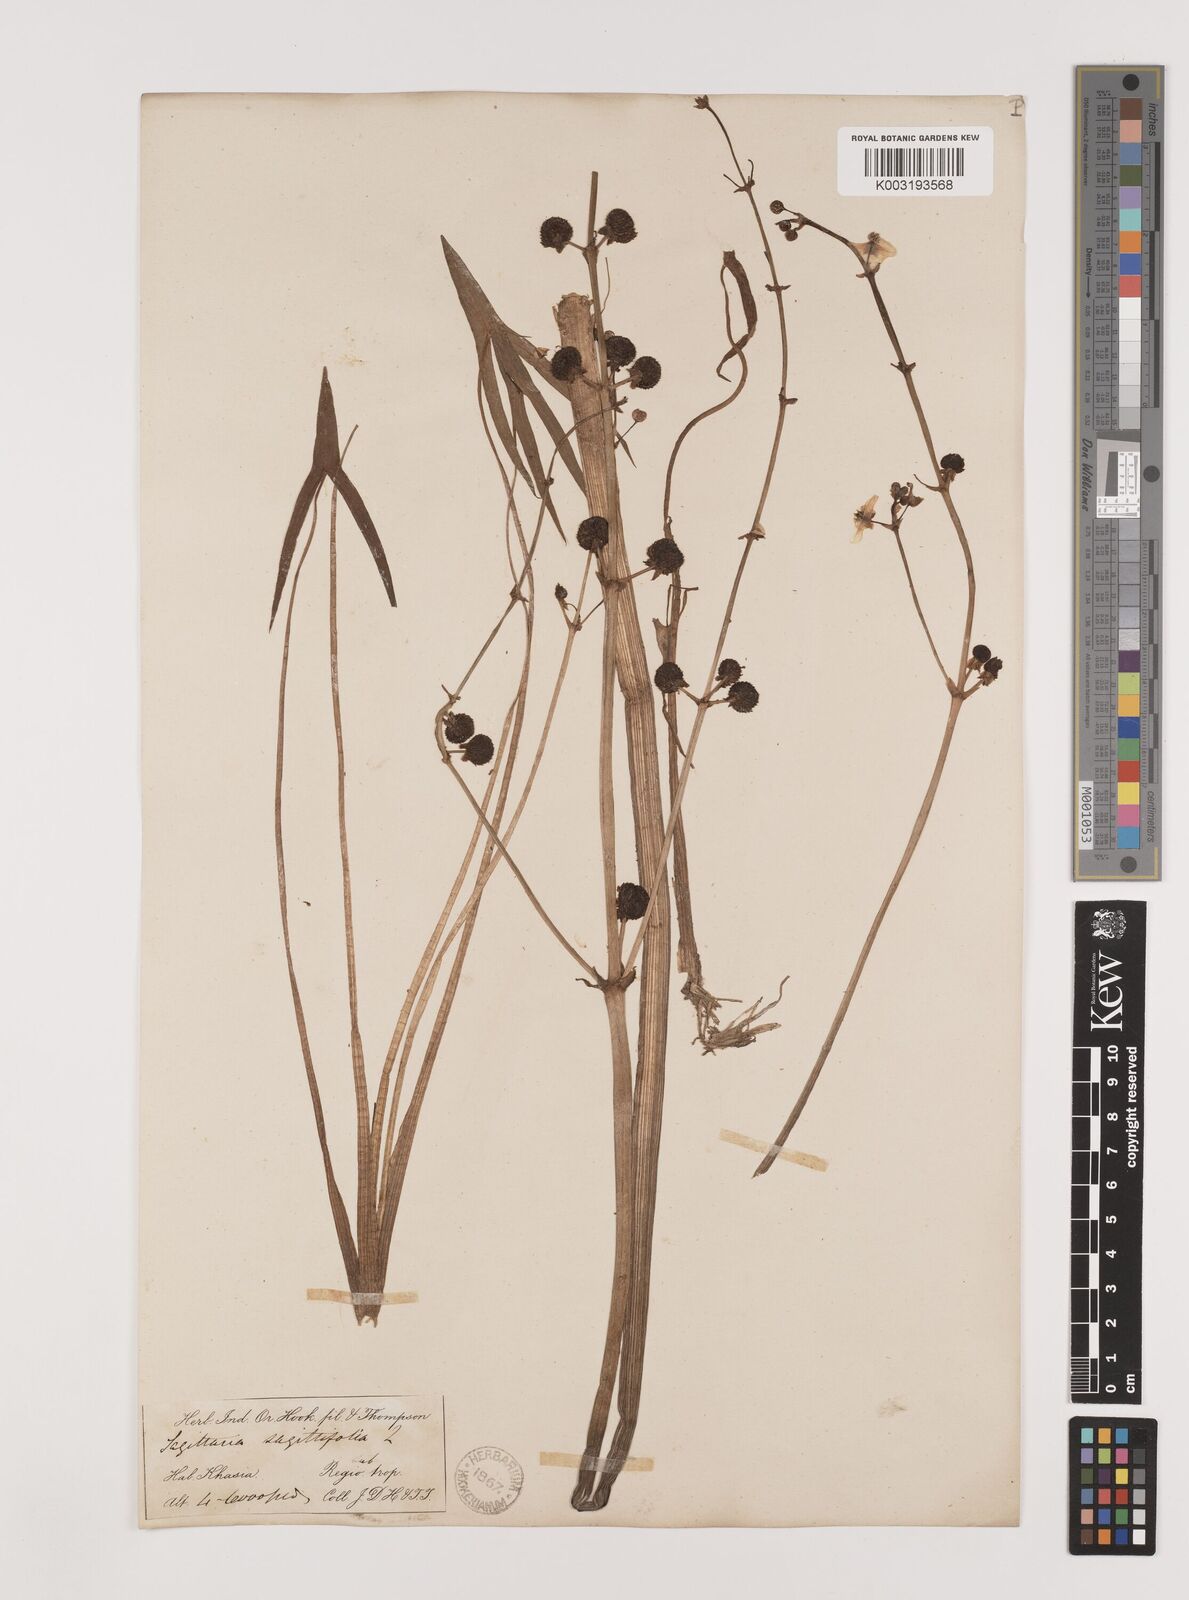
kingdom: Plantae
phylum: Tracheophyta
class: Liliopsida
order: Alismatales
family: Alismataceae
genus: Sagittaria
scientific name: Sagittaria sagittifolia
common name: Arrowhead
